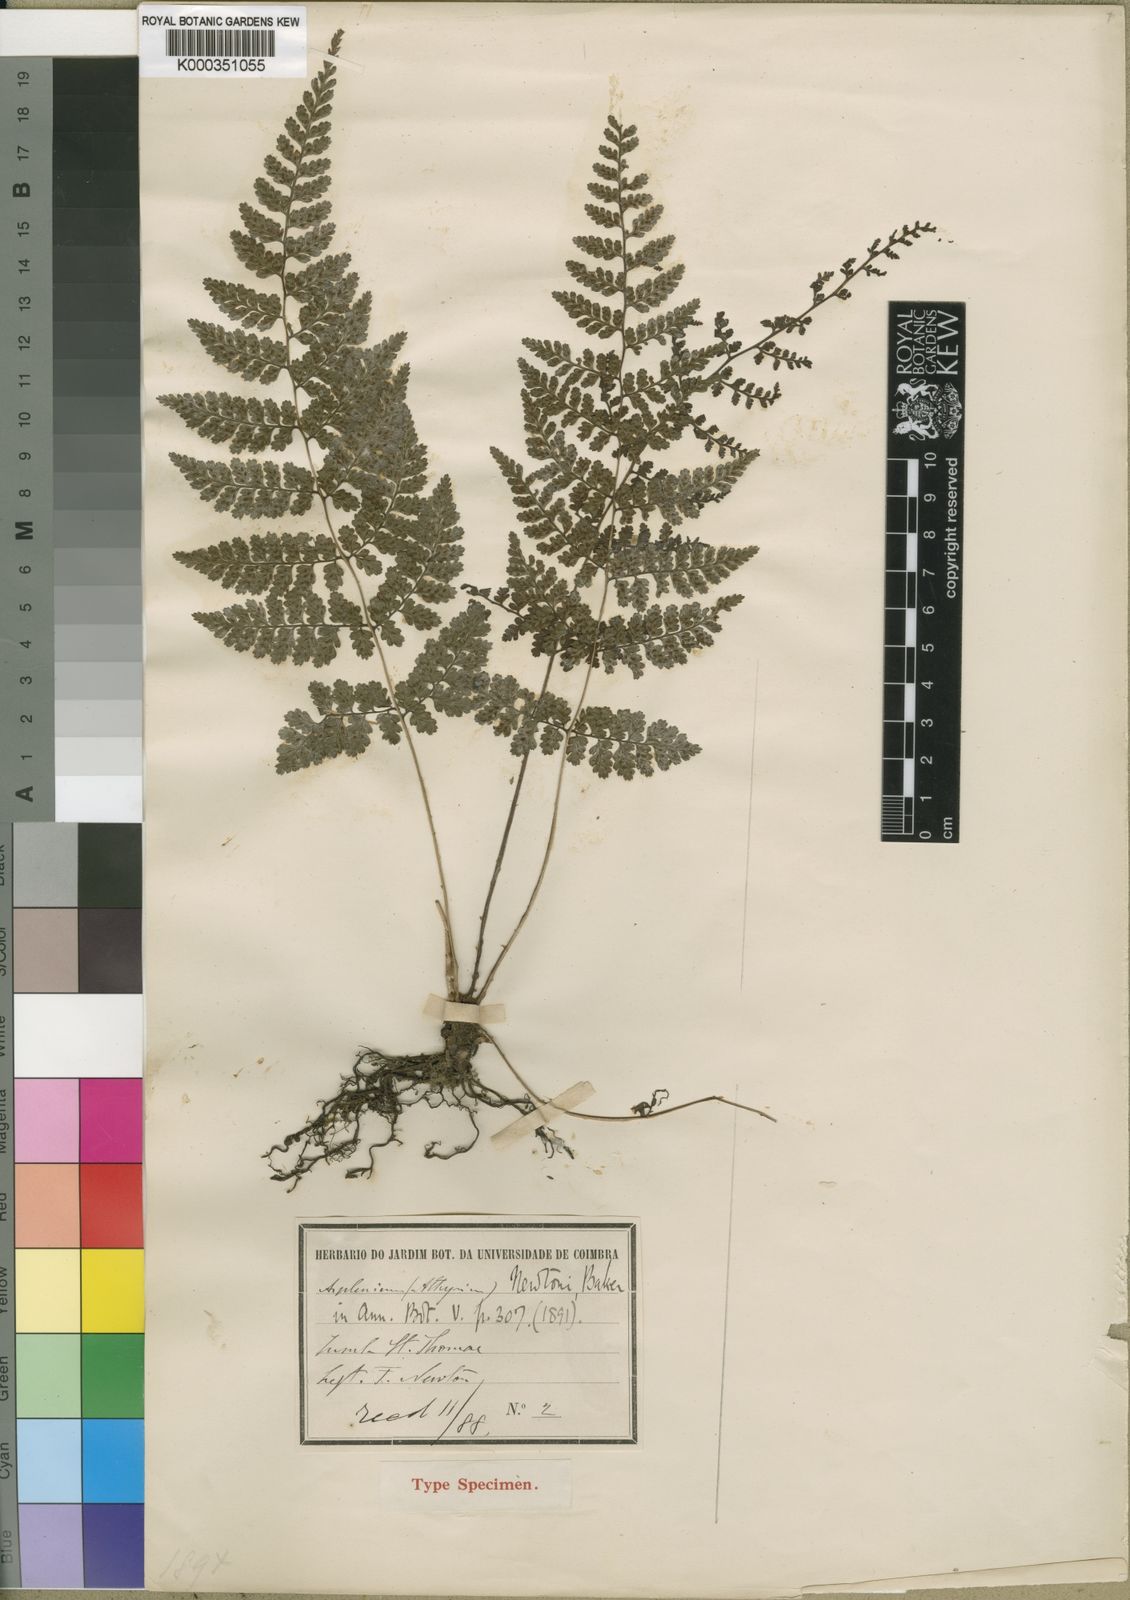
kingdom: Plantae
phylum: Tracheophyta
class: Polypodiopsida
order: Polypodiales
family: Athyriaceae
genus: Athyrium
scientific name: Athyrium newtonii
